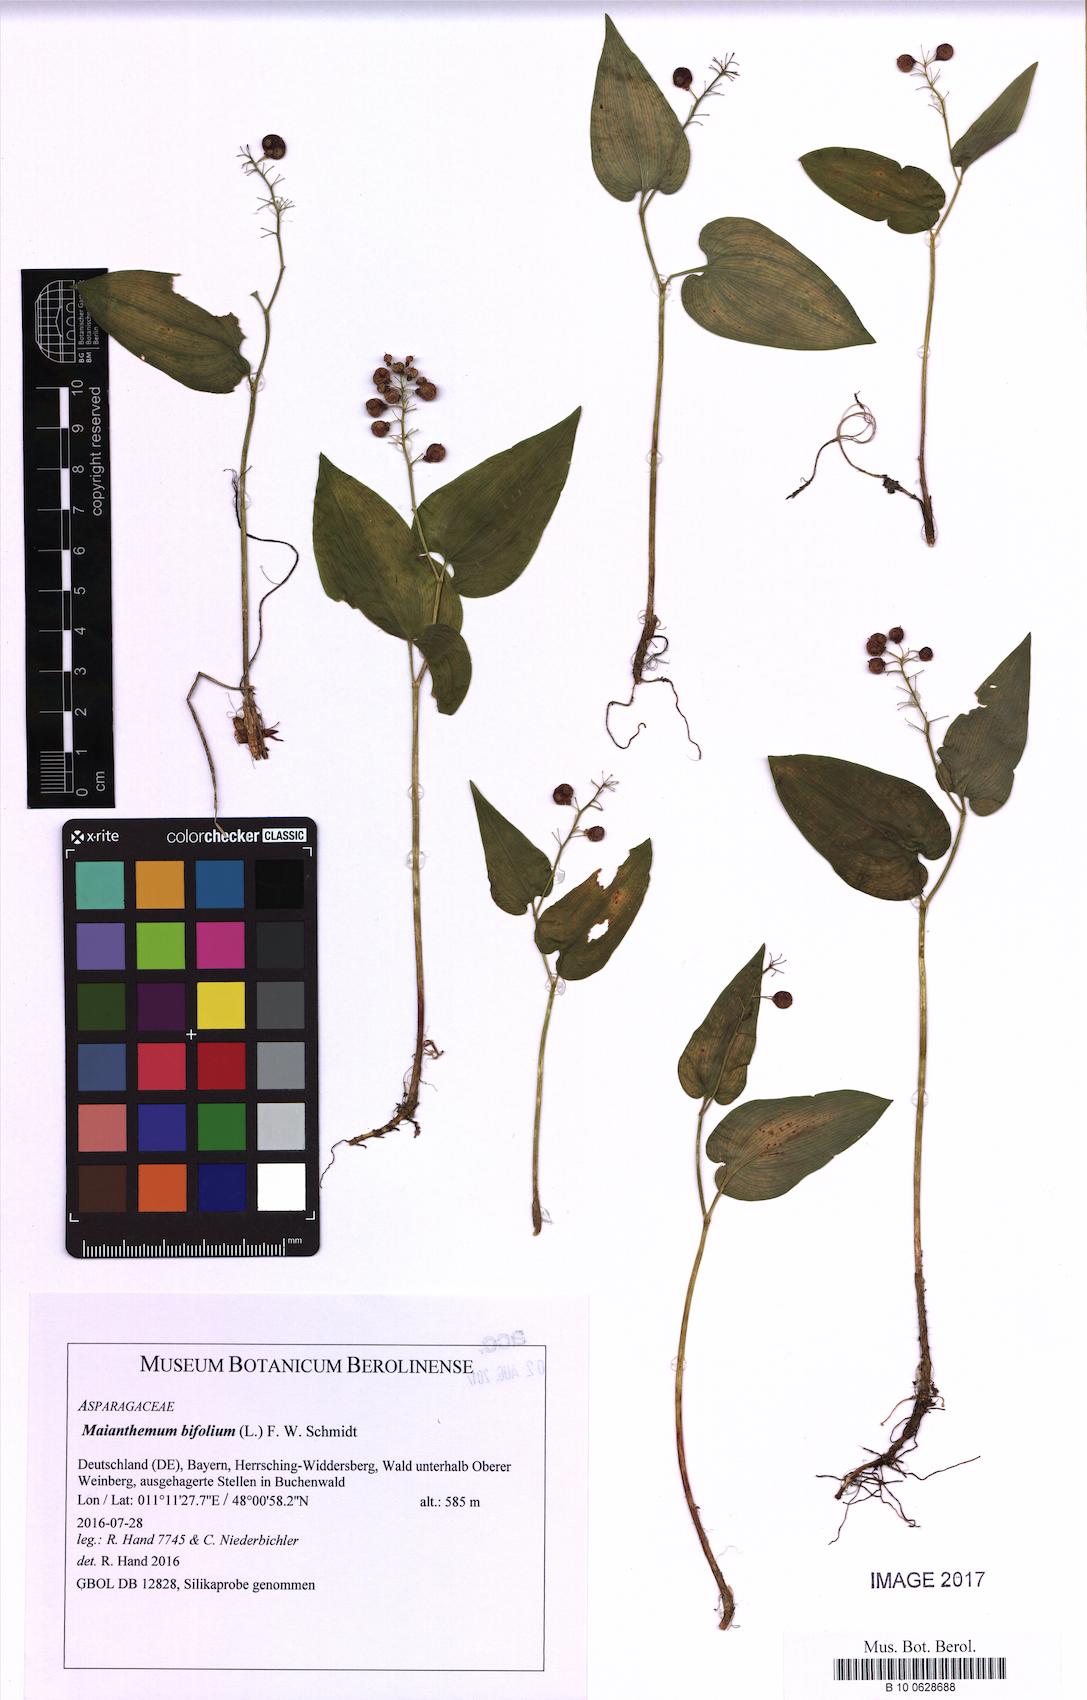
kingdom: Plantae
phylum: Tracheophyta
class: Liliopsida
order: Asparagales
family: Asparagaceae
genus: Maianthemum
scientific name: Maianthemum bifolium
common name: May lily
